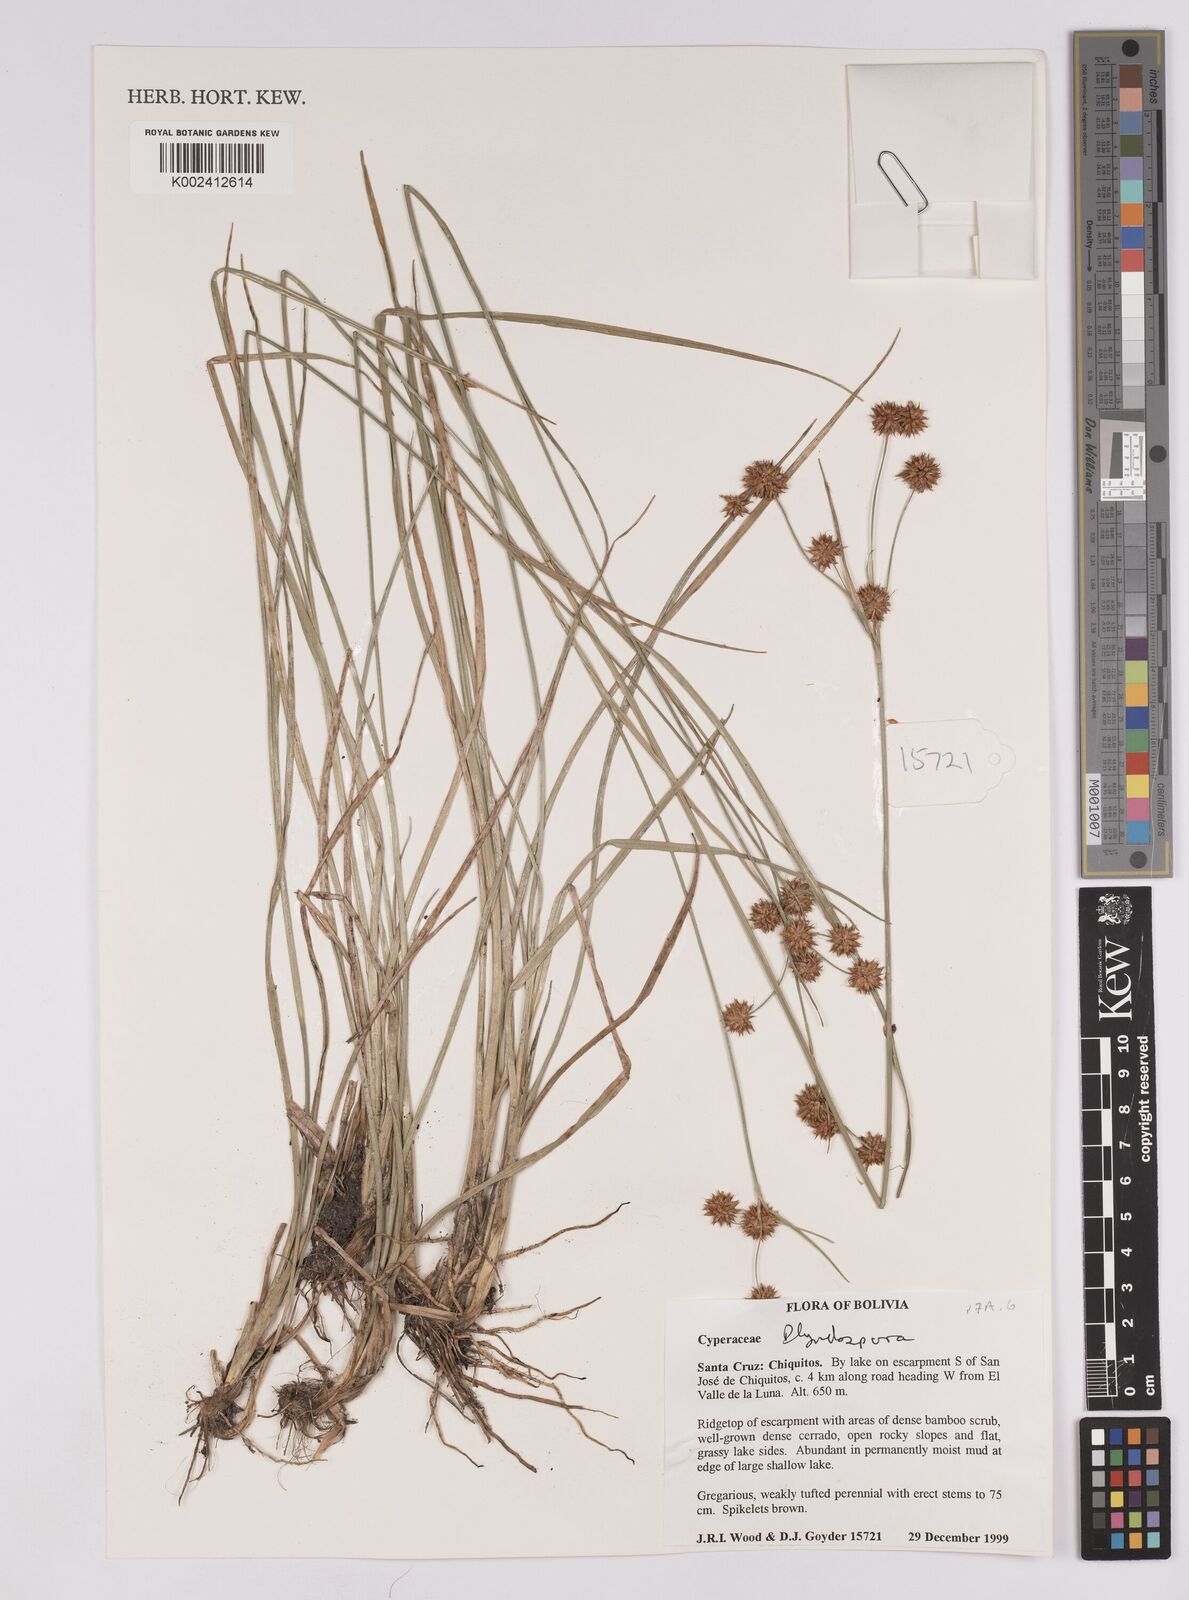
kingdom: Plantae
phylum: Tracheophyta
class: Liliopsida
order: Poales
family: Cyperaceae
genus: Rhynchospora
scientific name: Rhynchospora
